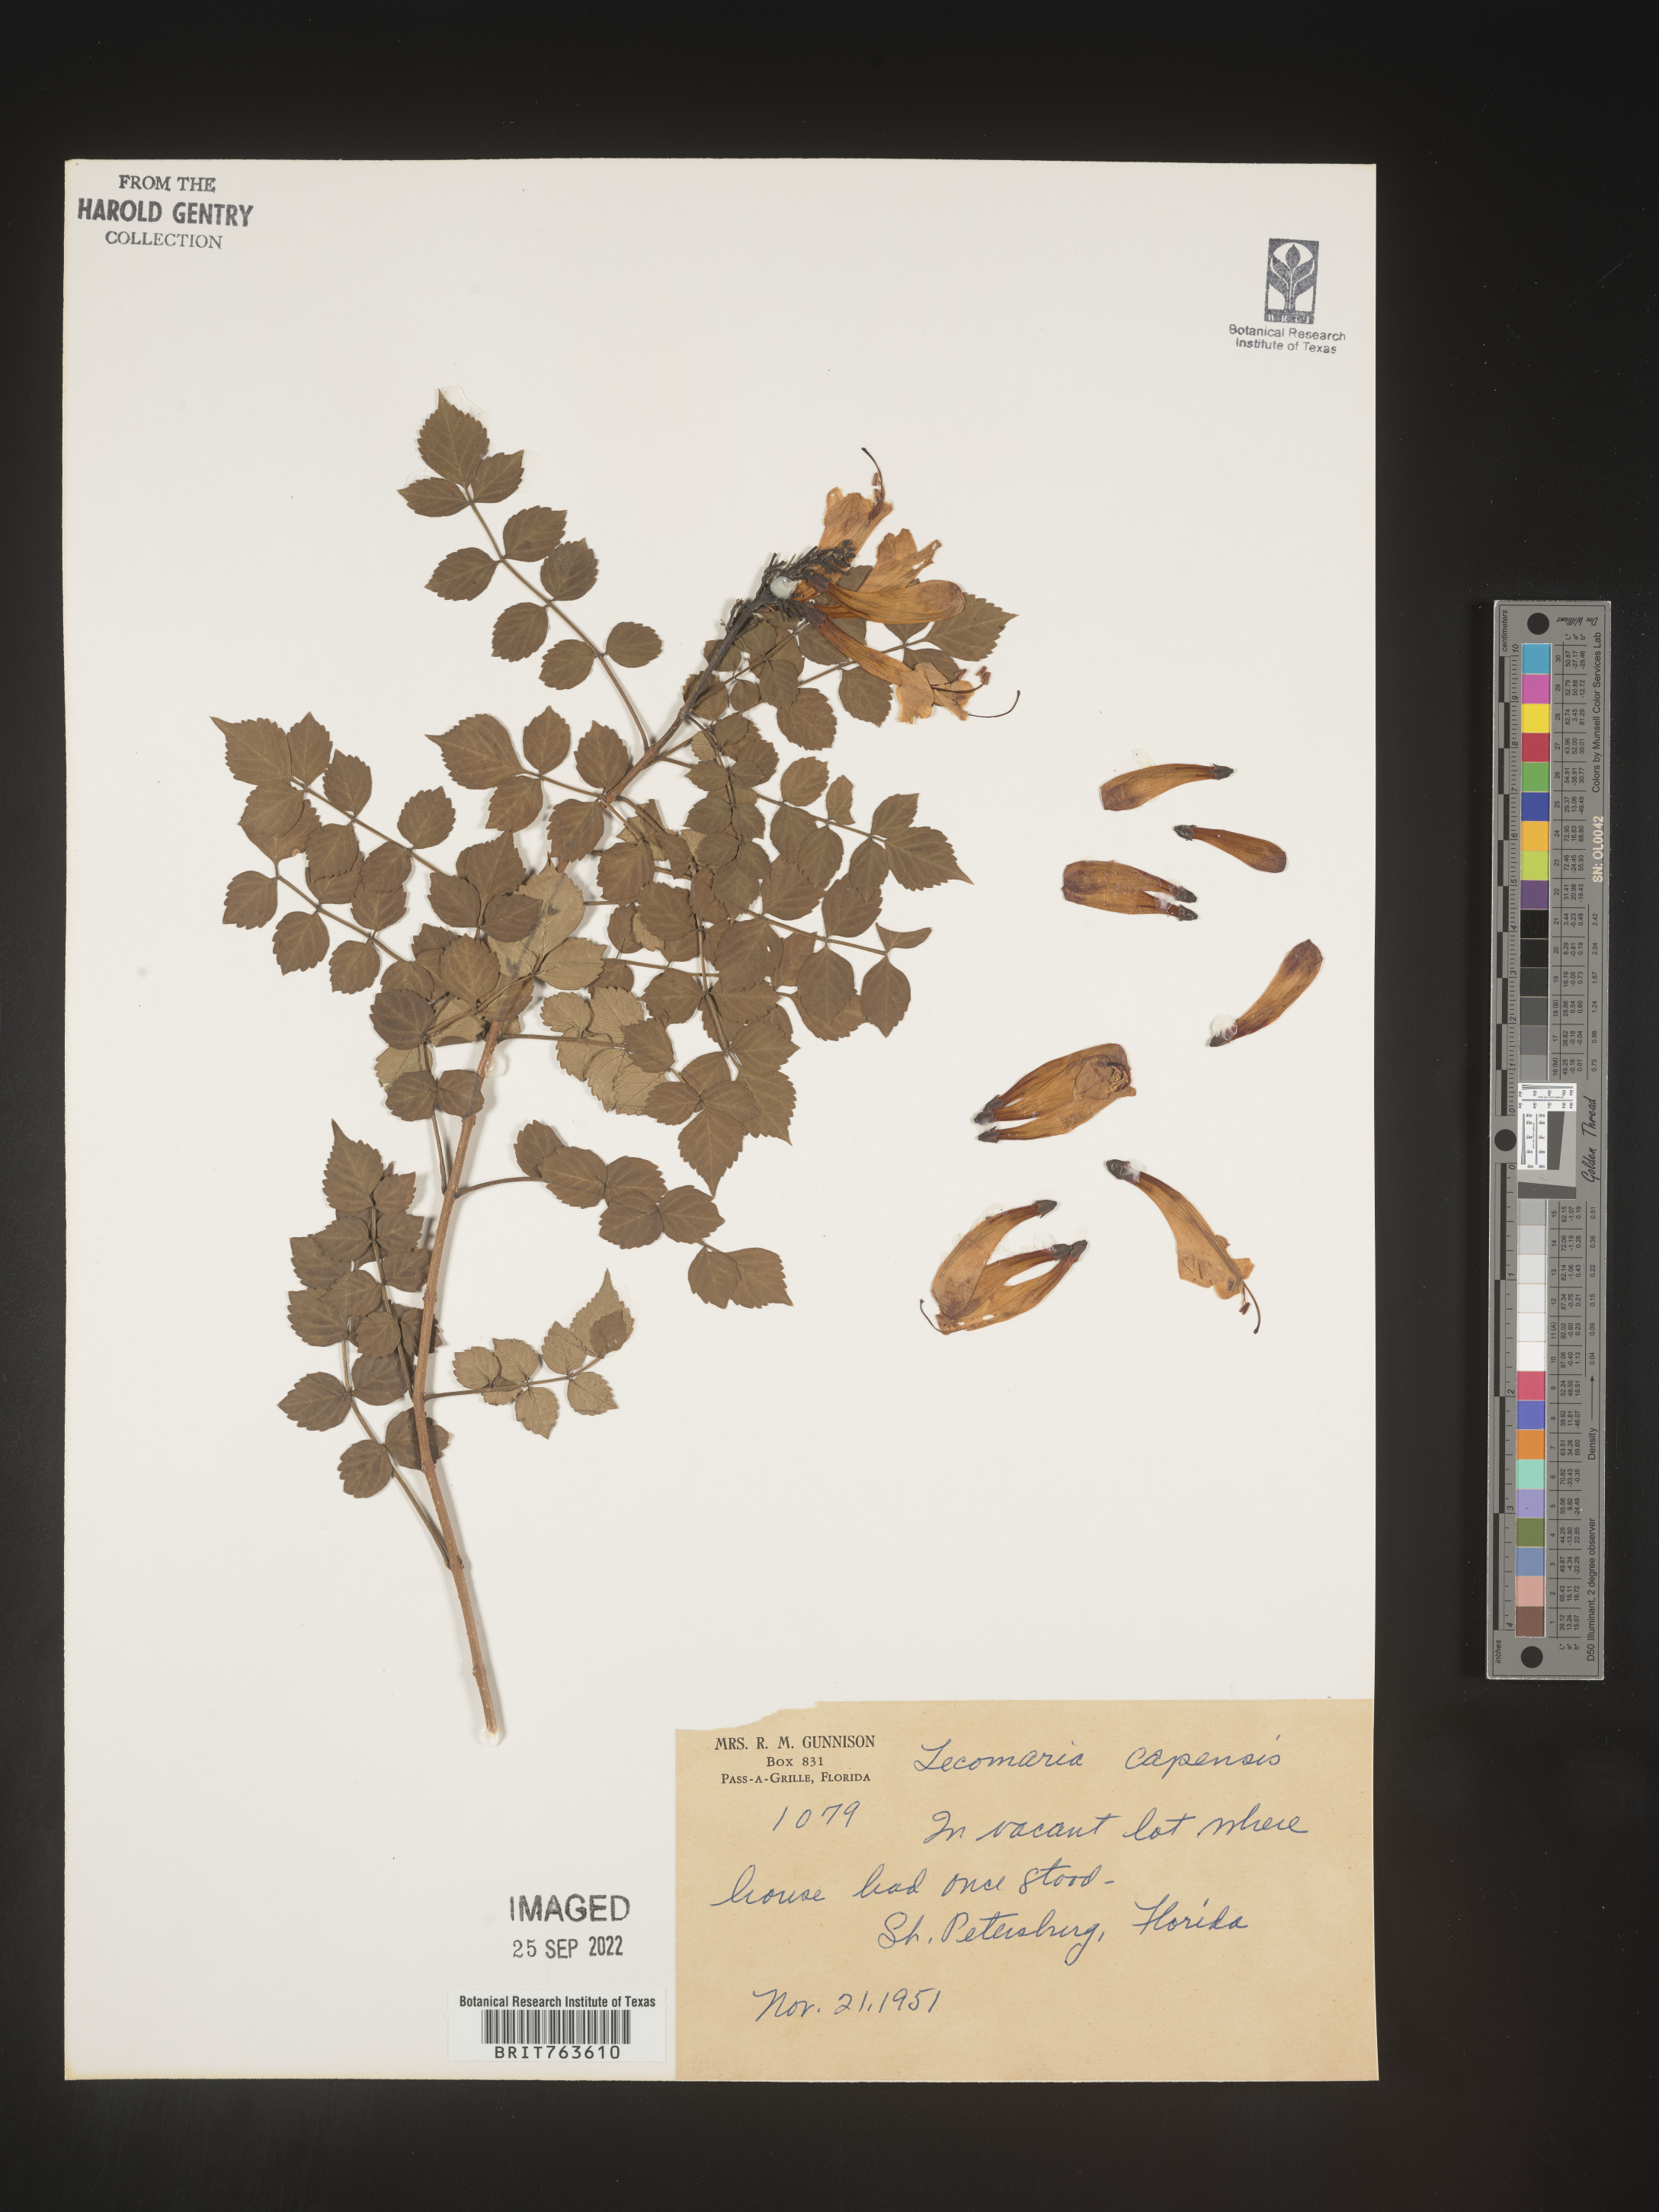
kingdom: Plantae
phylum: Tracheophyta
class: Magnoliopsida
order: Lamiales
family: Bignoniaceae
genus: Tecomaria
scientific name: Tecomaria
